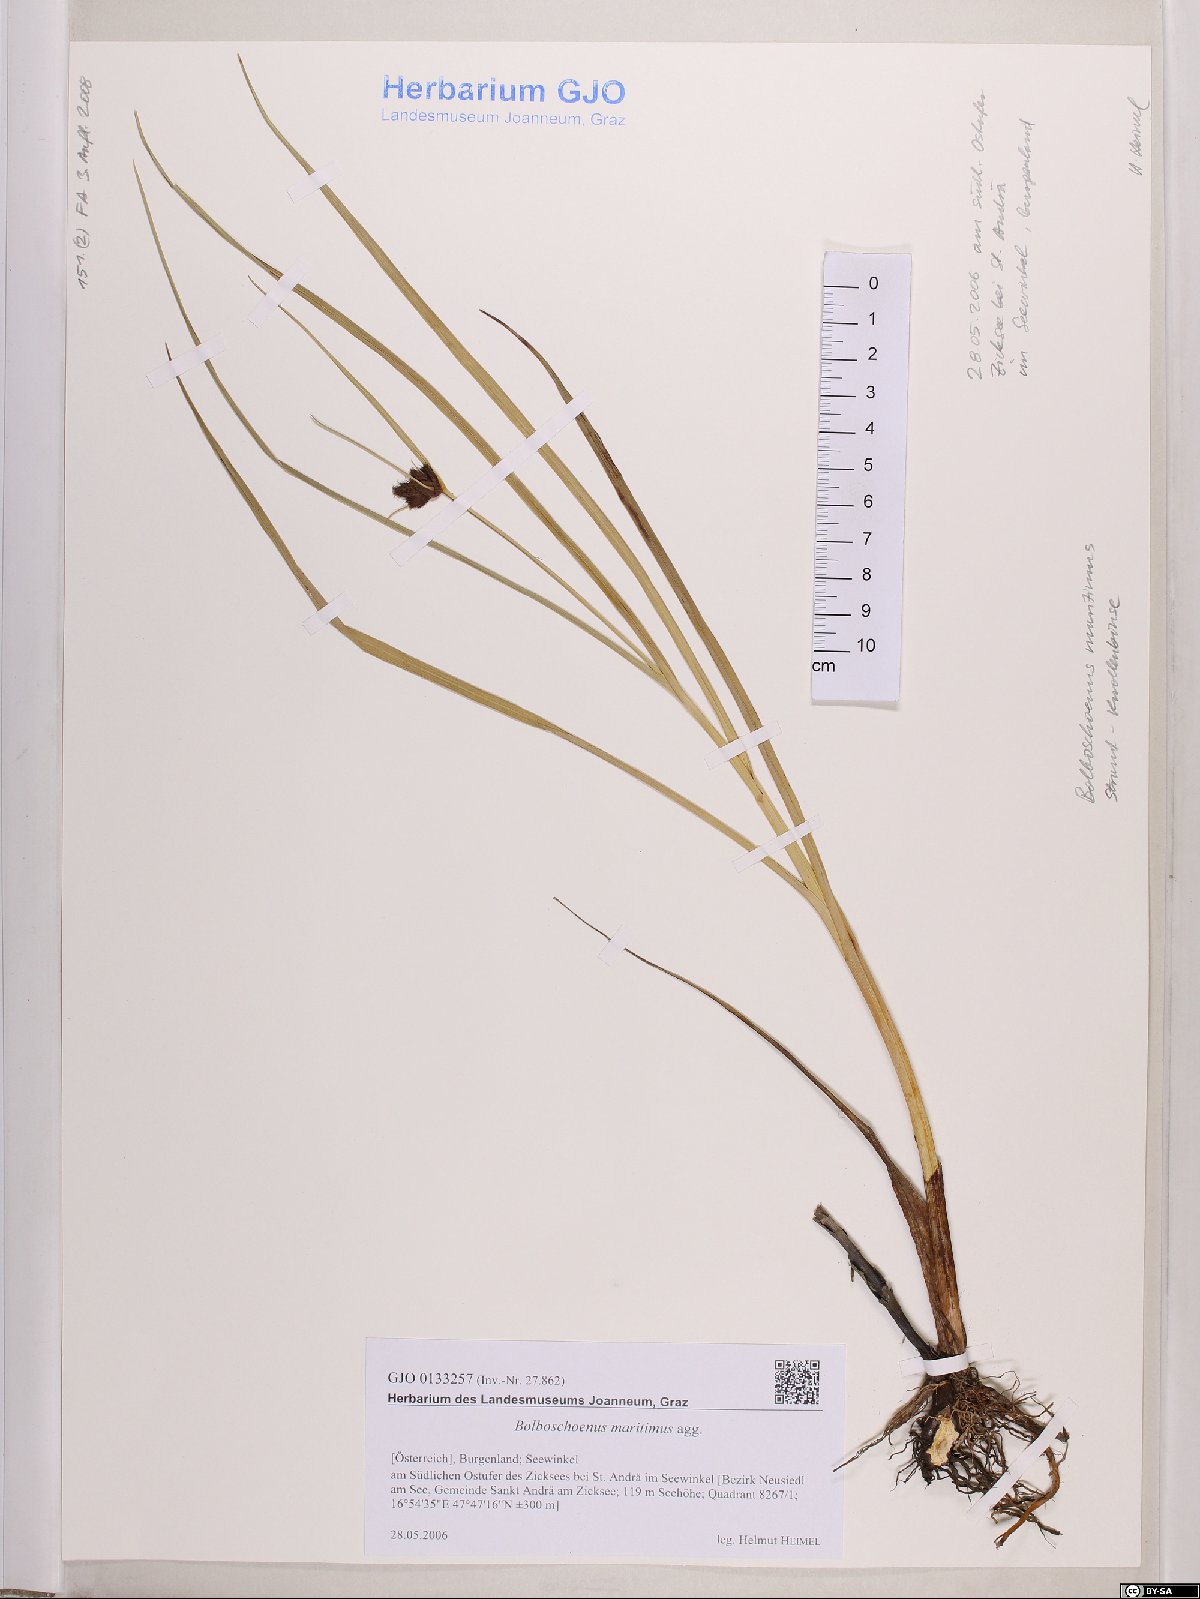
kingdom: Plantae
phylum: Tracheophyta
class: Liliopsida
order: Poales
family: Cyperaceae
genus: Bolboschoenus
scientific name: Bolboschoenus maritimus
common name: Sea club-rush
